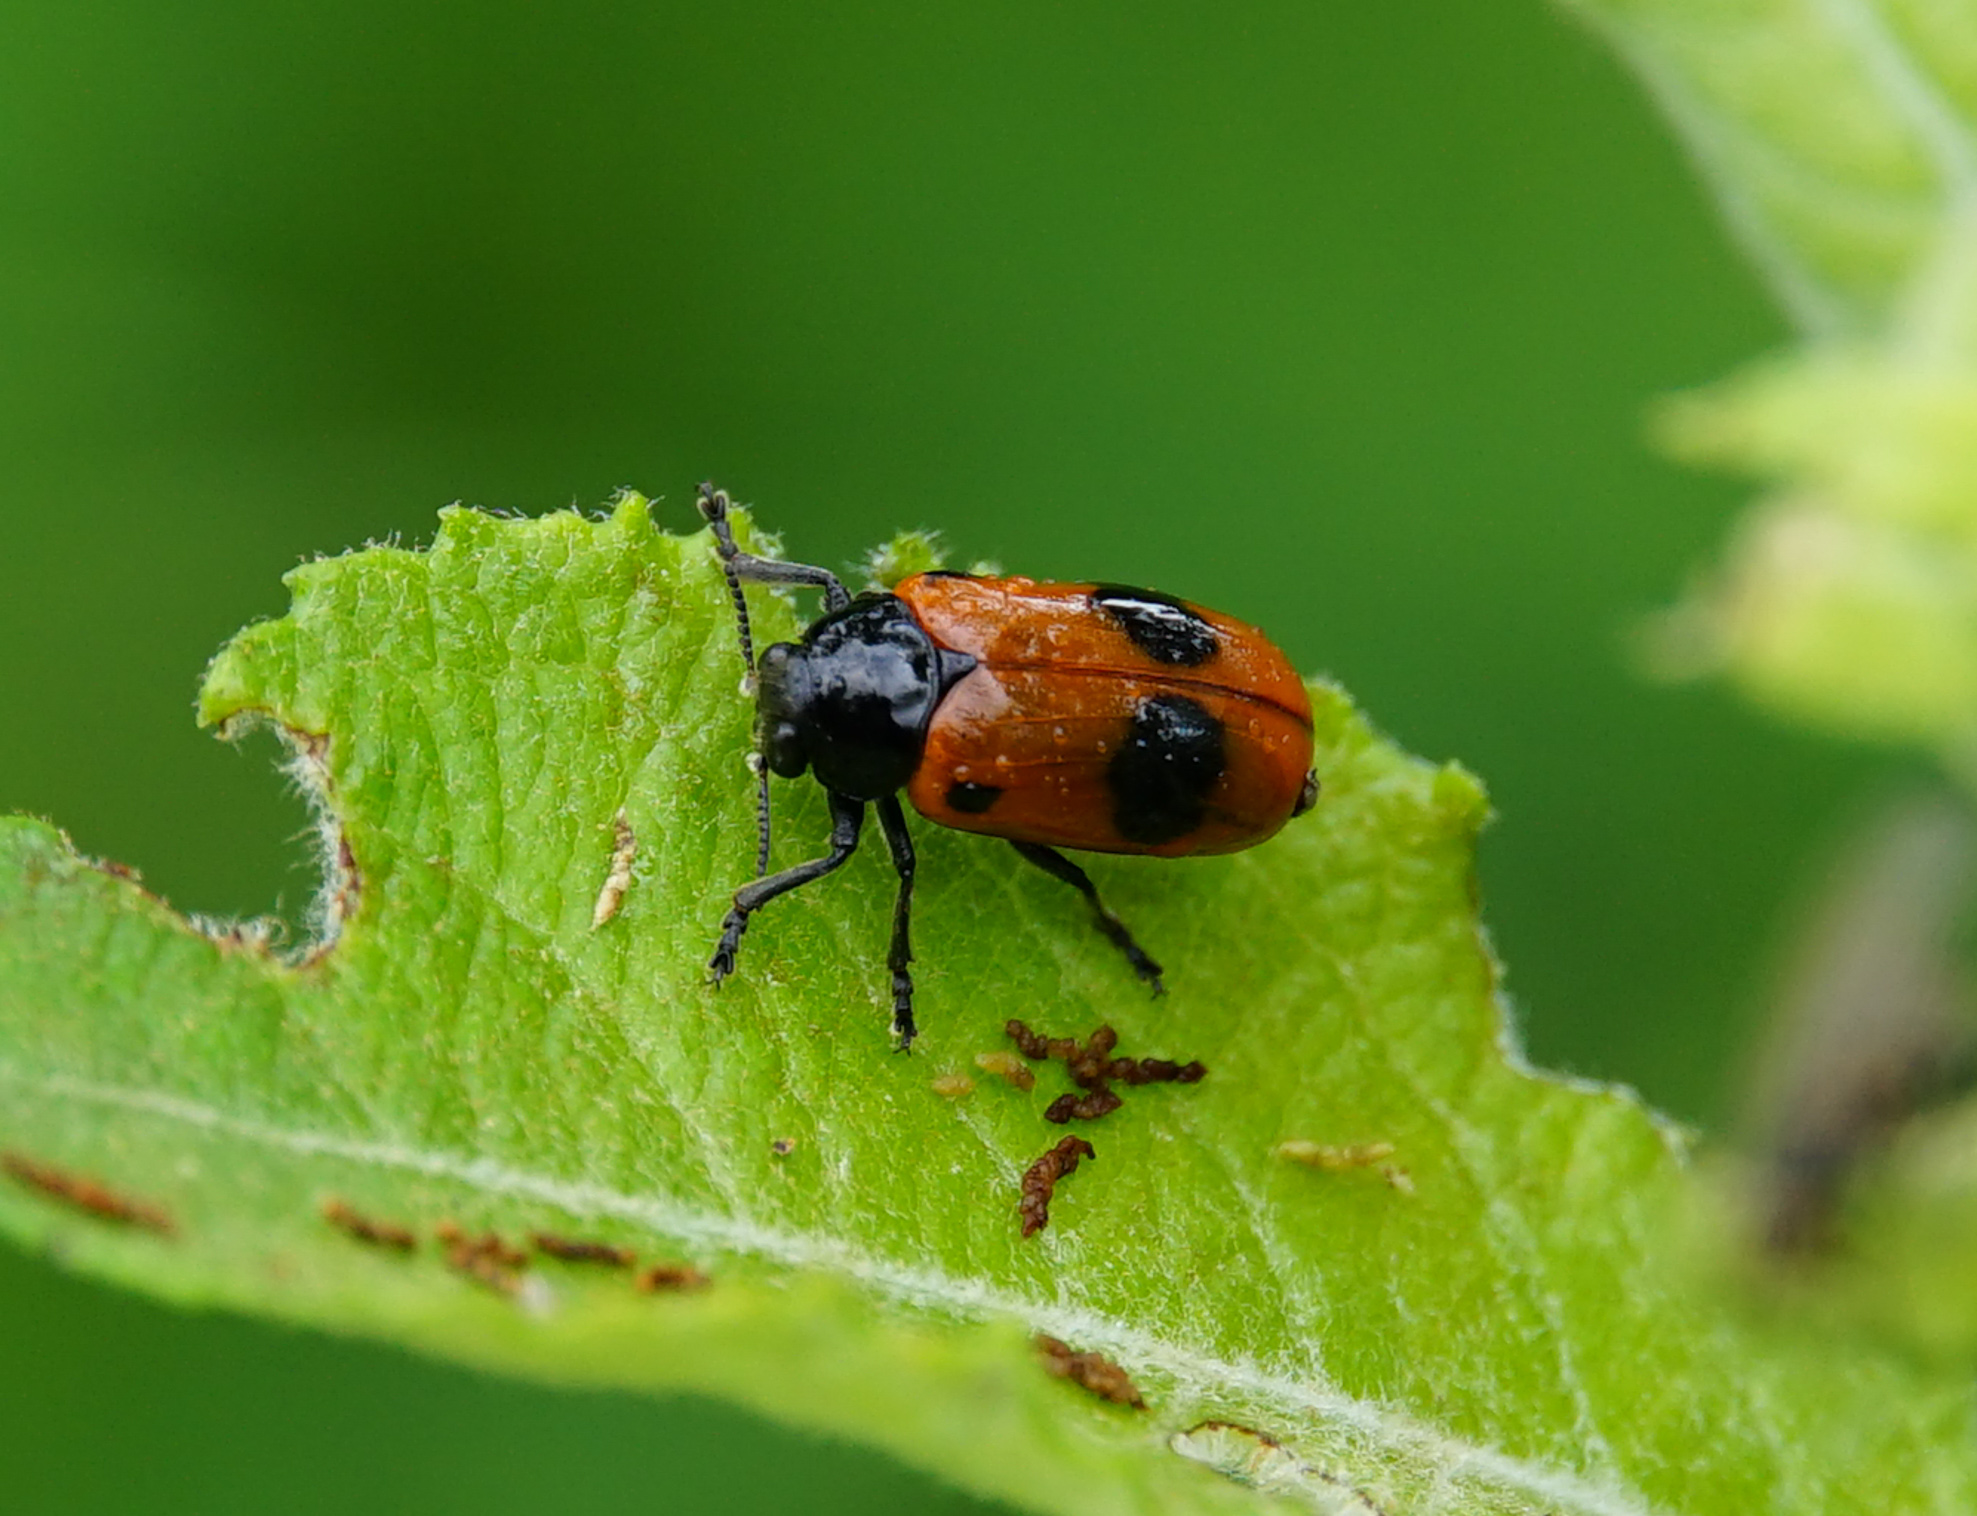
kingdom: Animalia
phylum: Arthropoda
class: Insecta
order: Coleoptera
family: Chrysomelidae
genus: Clytra
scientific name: Clytra laeviuscula
